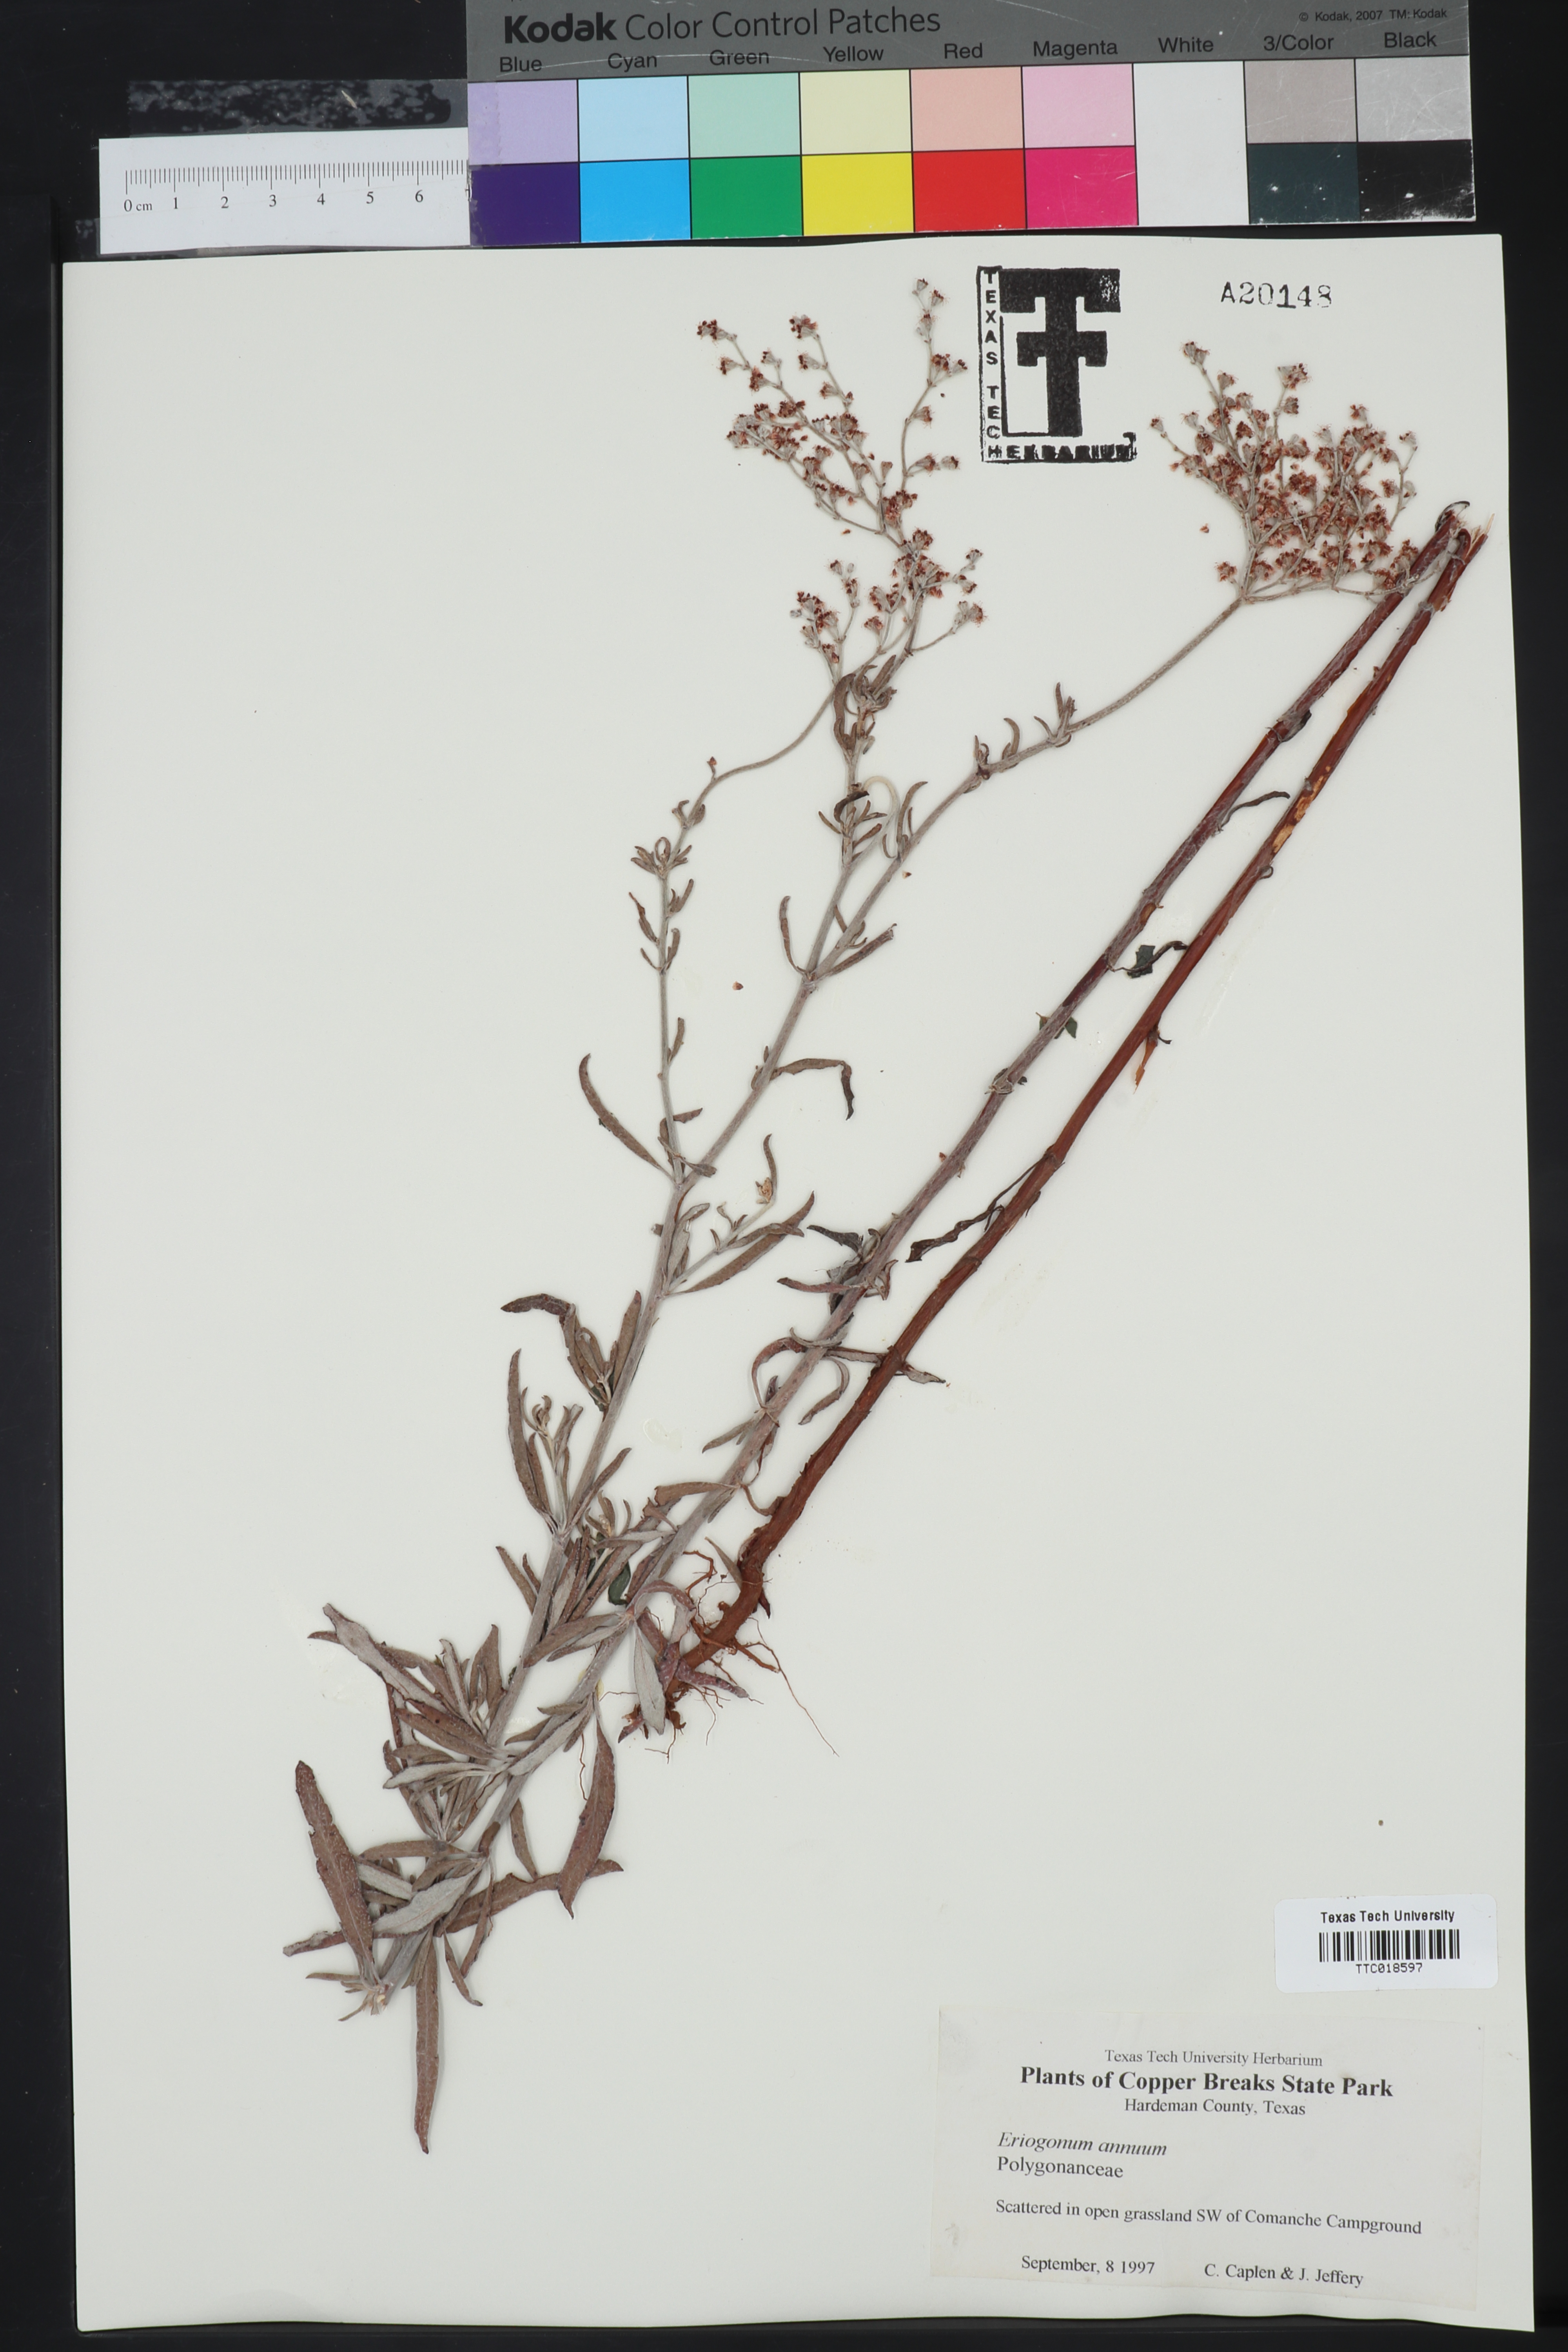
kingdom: Plantae
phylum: Tracheophyta
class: Magnoliopsida
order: Caryophyllales
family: Polygonaceae
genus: Eriogonum
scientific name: Eriogonum annuum
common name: Annual wild buckwheat
